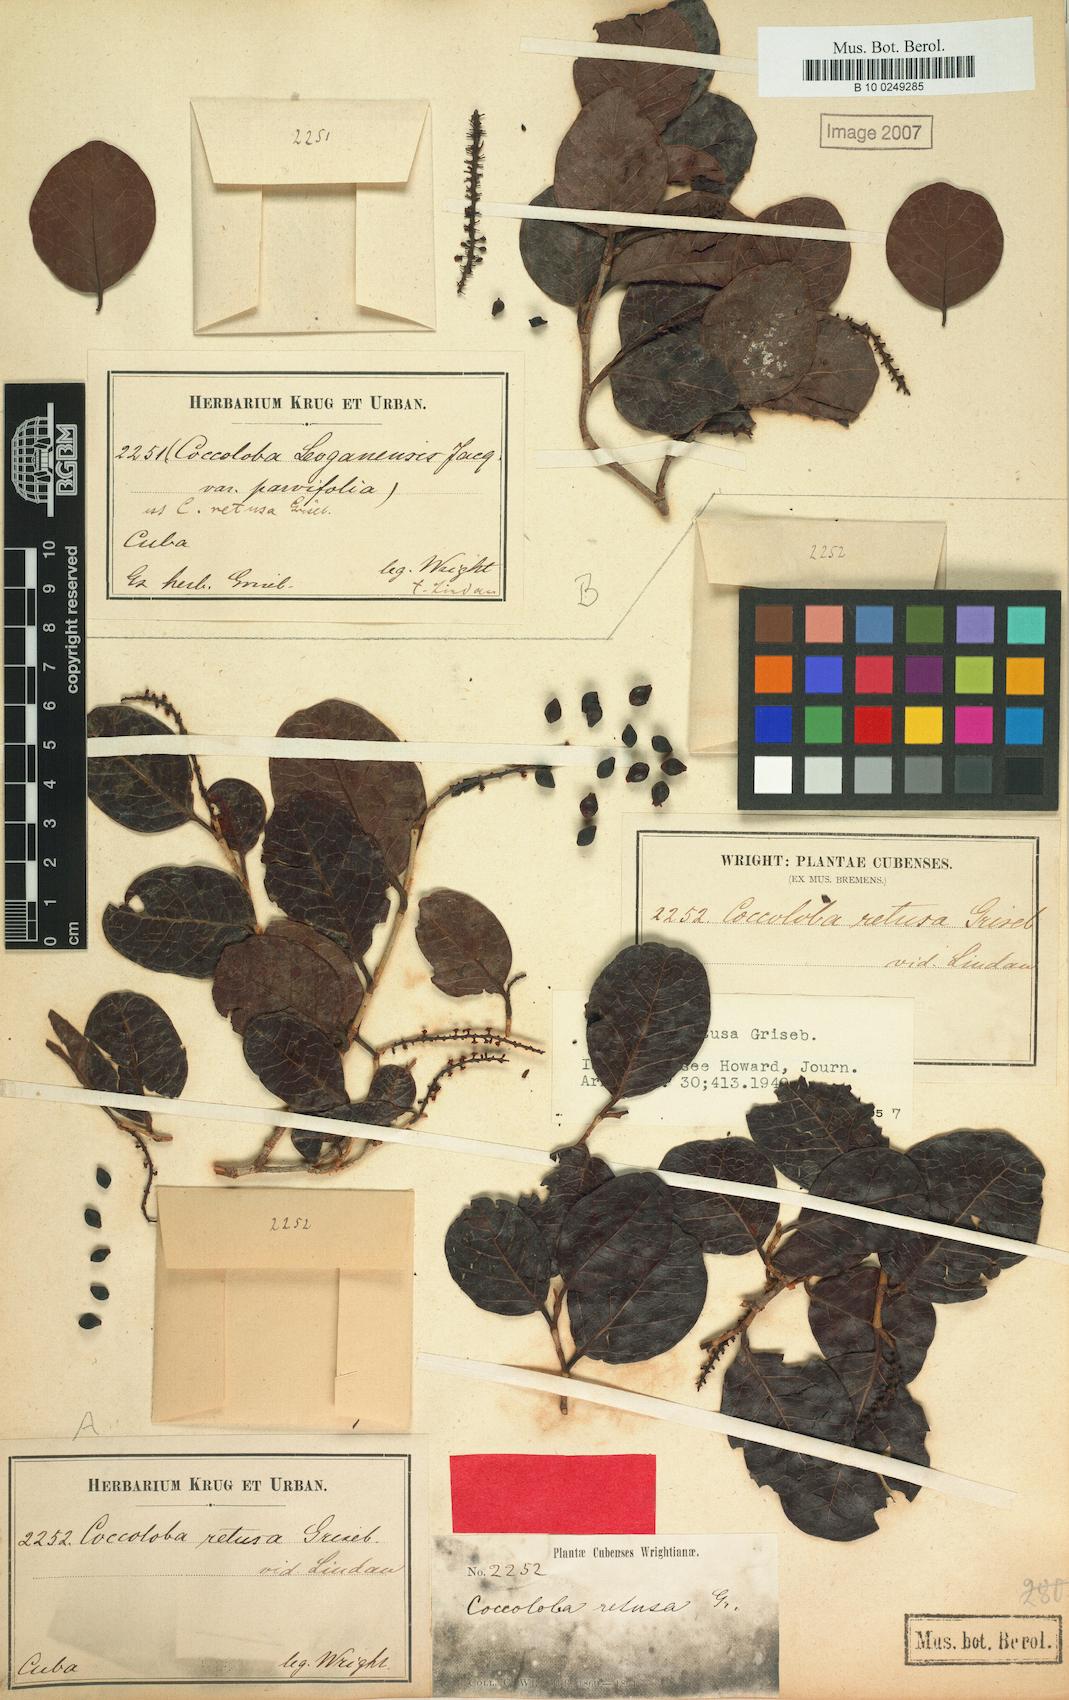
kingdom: Plantae
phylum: Tracheophyta
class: Magnoliopsida
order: Caryophyllales
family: Polygonaceae
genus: Coccoloba
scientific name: Coccoloba retusa
